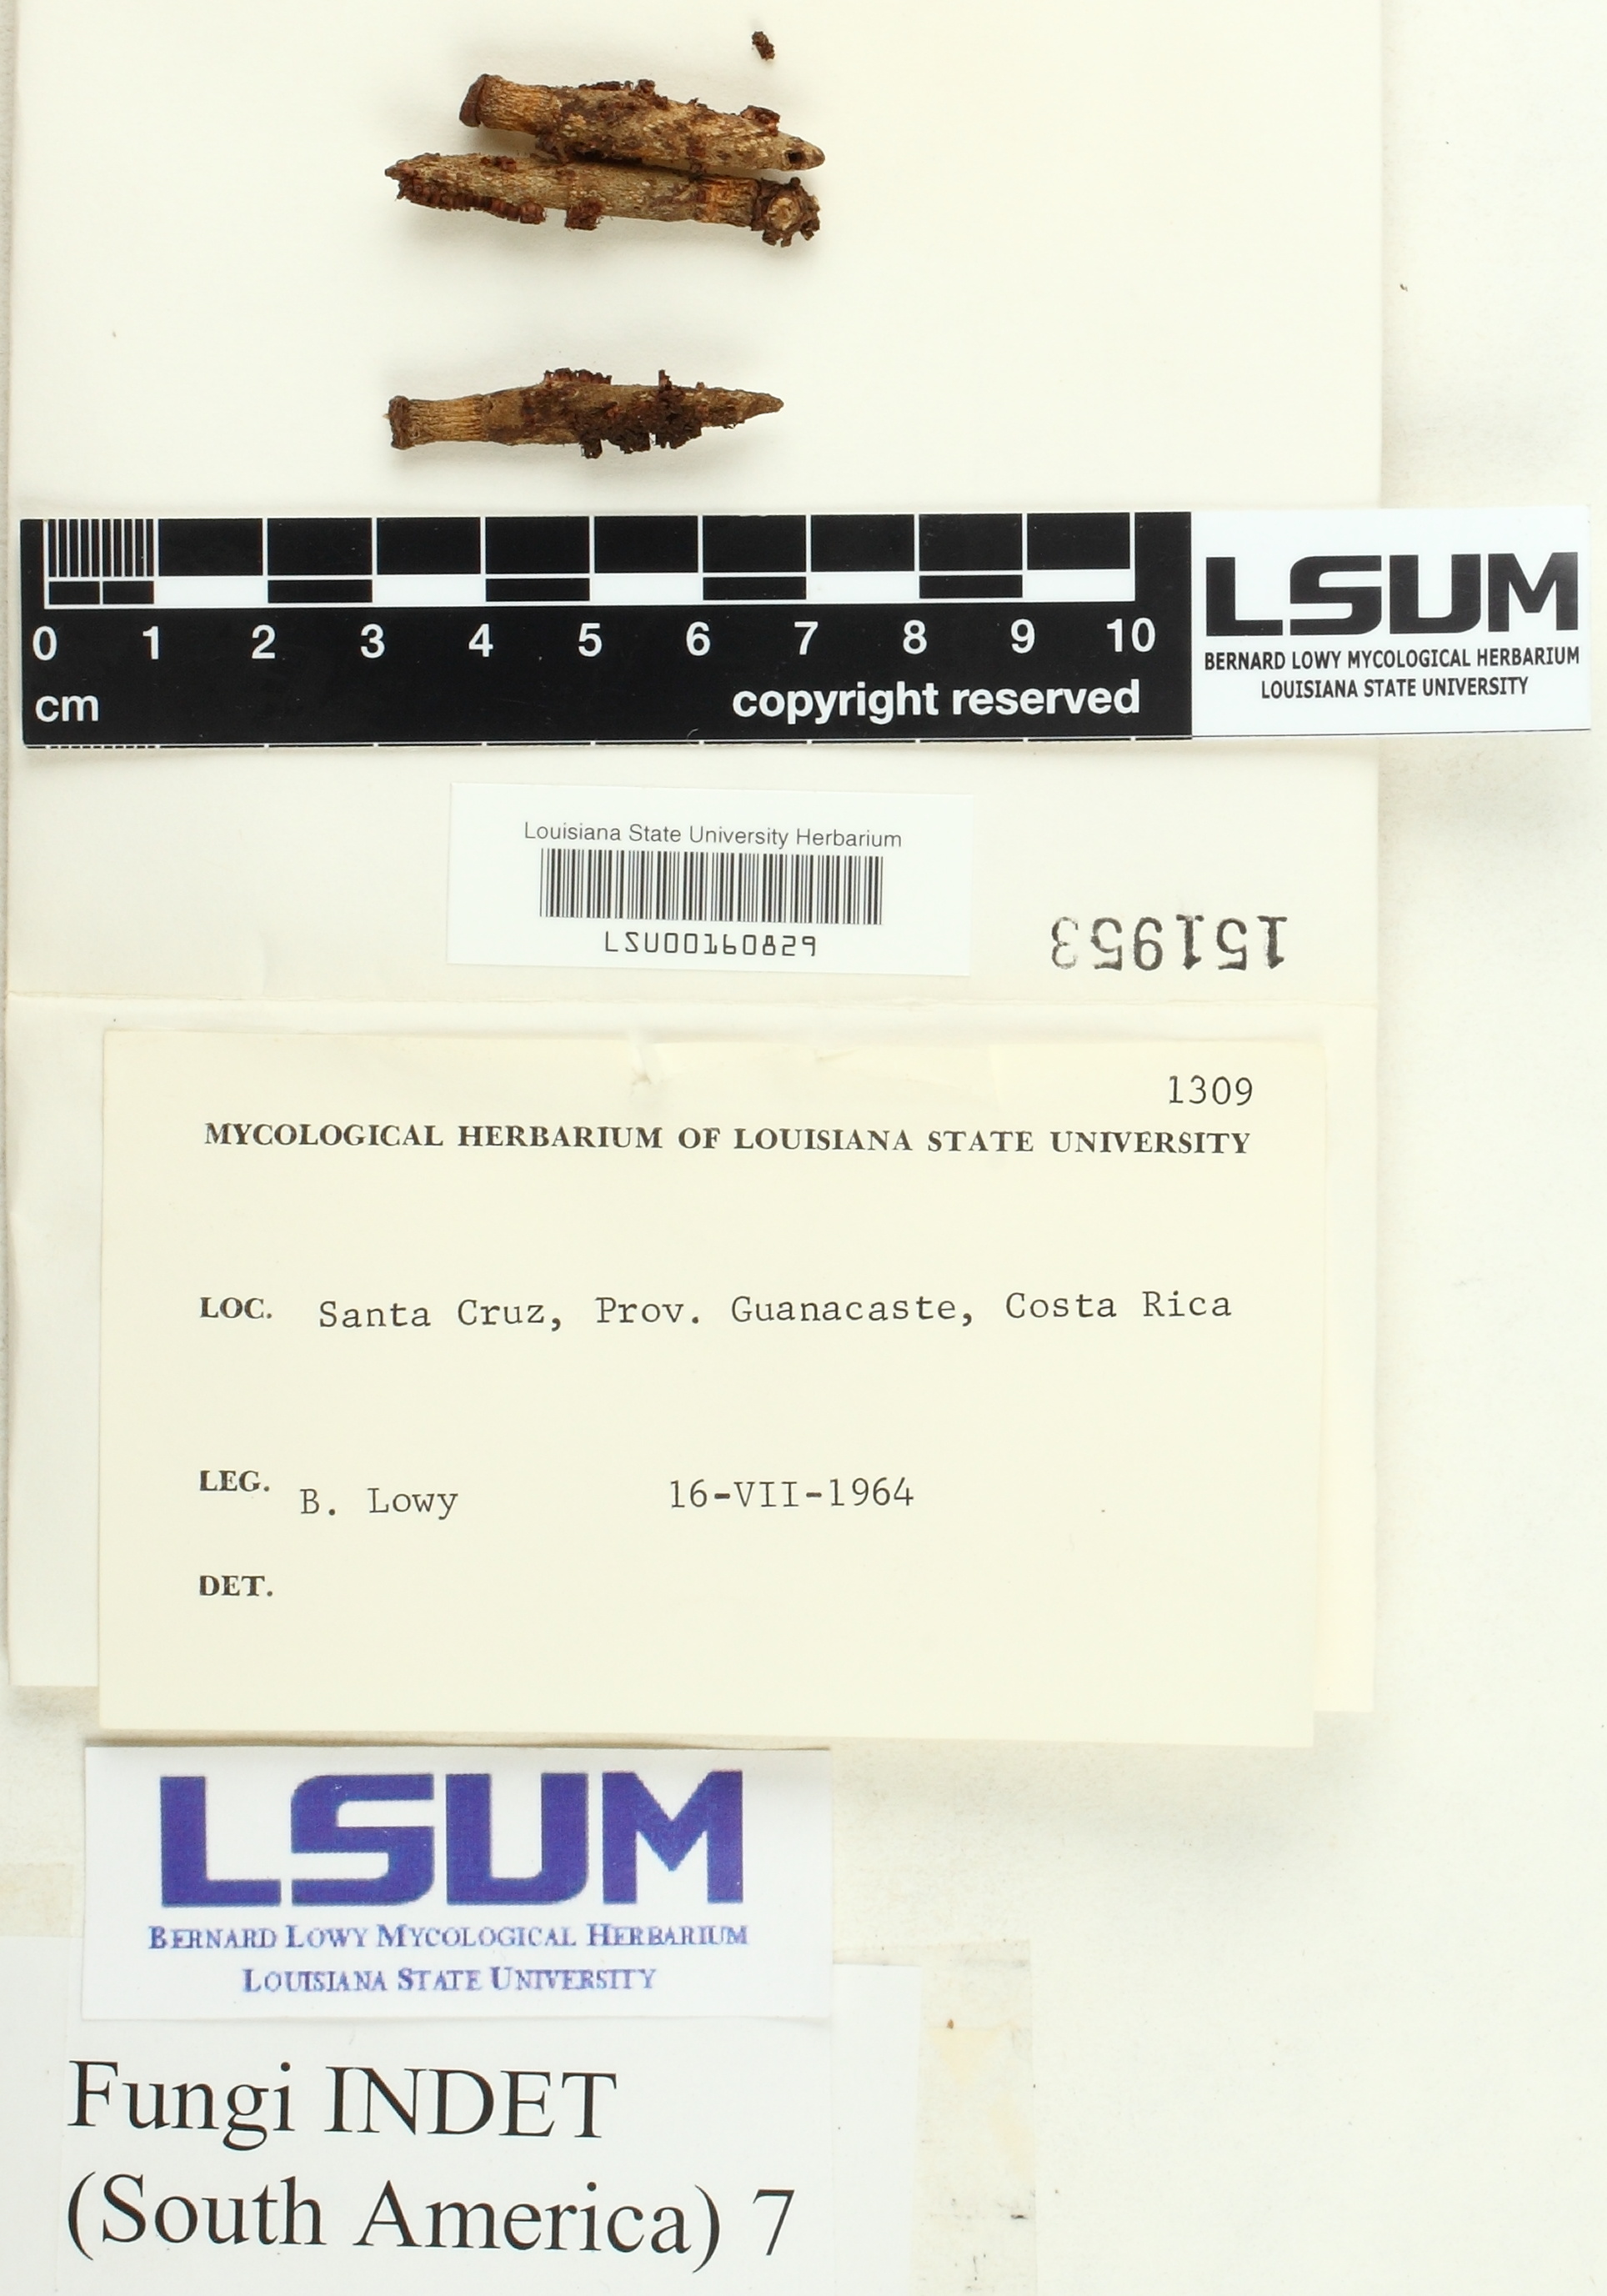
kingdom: Fungi
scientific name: Fungi
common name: Fungi
